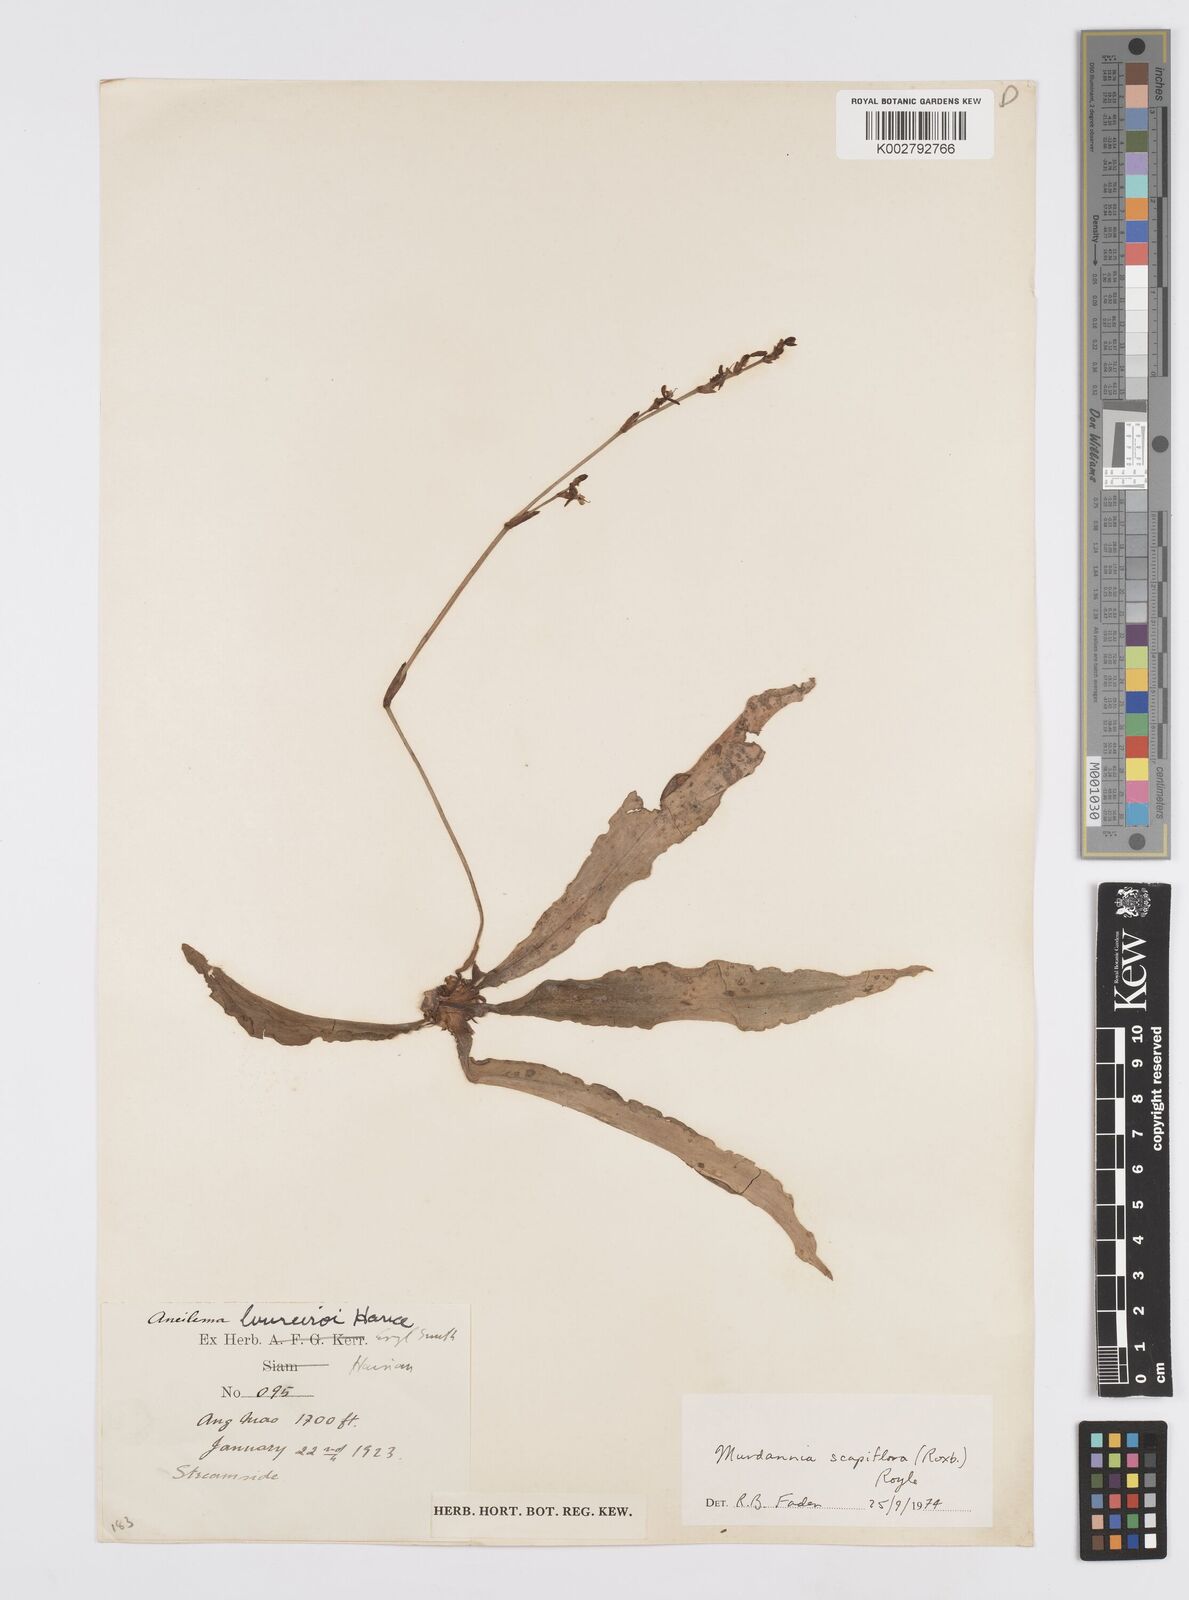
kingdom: Plantae
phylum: Tracheophyta
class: Liliopsida
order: Commelinales
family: Commelinaceae
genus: Murdannia
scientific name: Murdannia edulis
